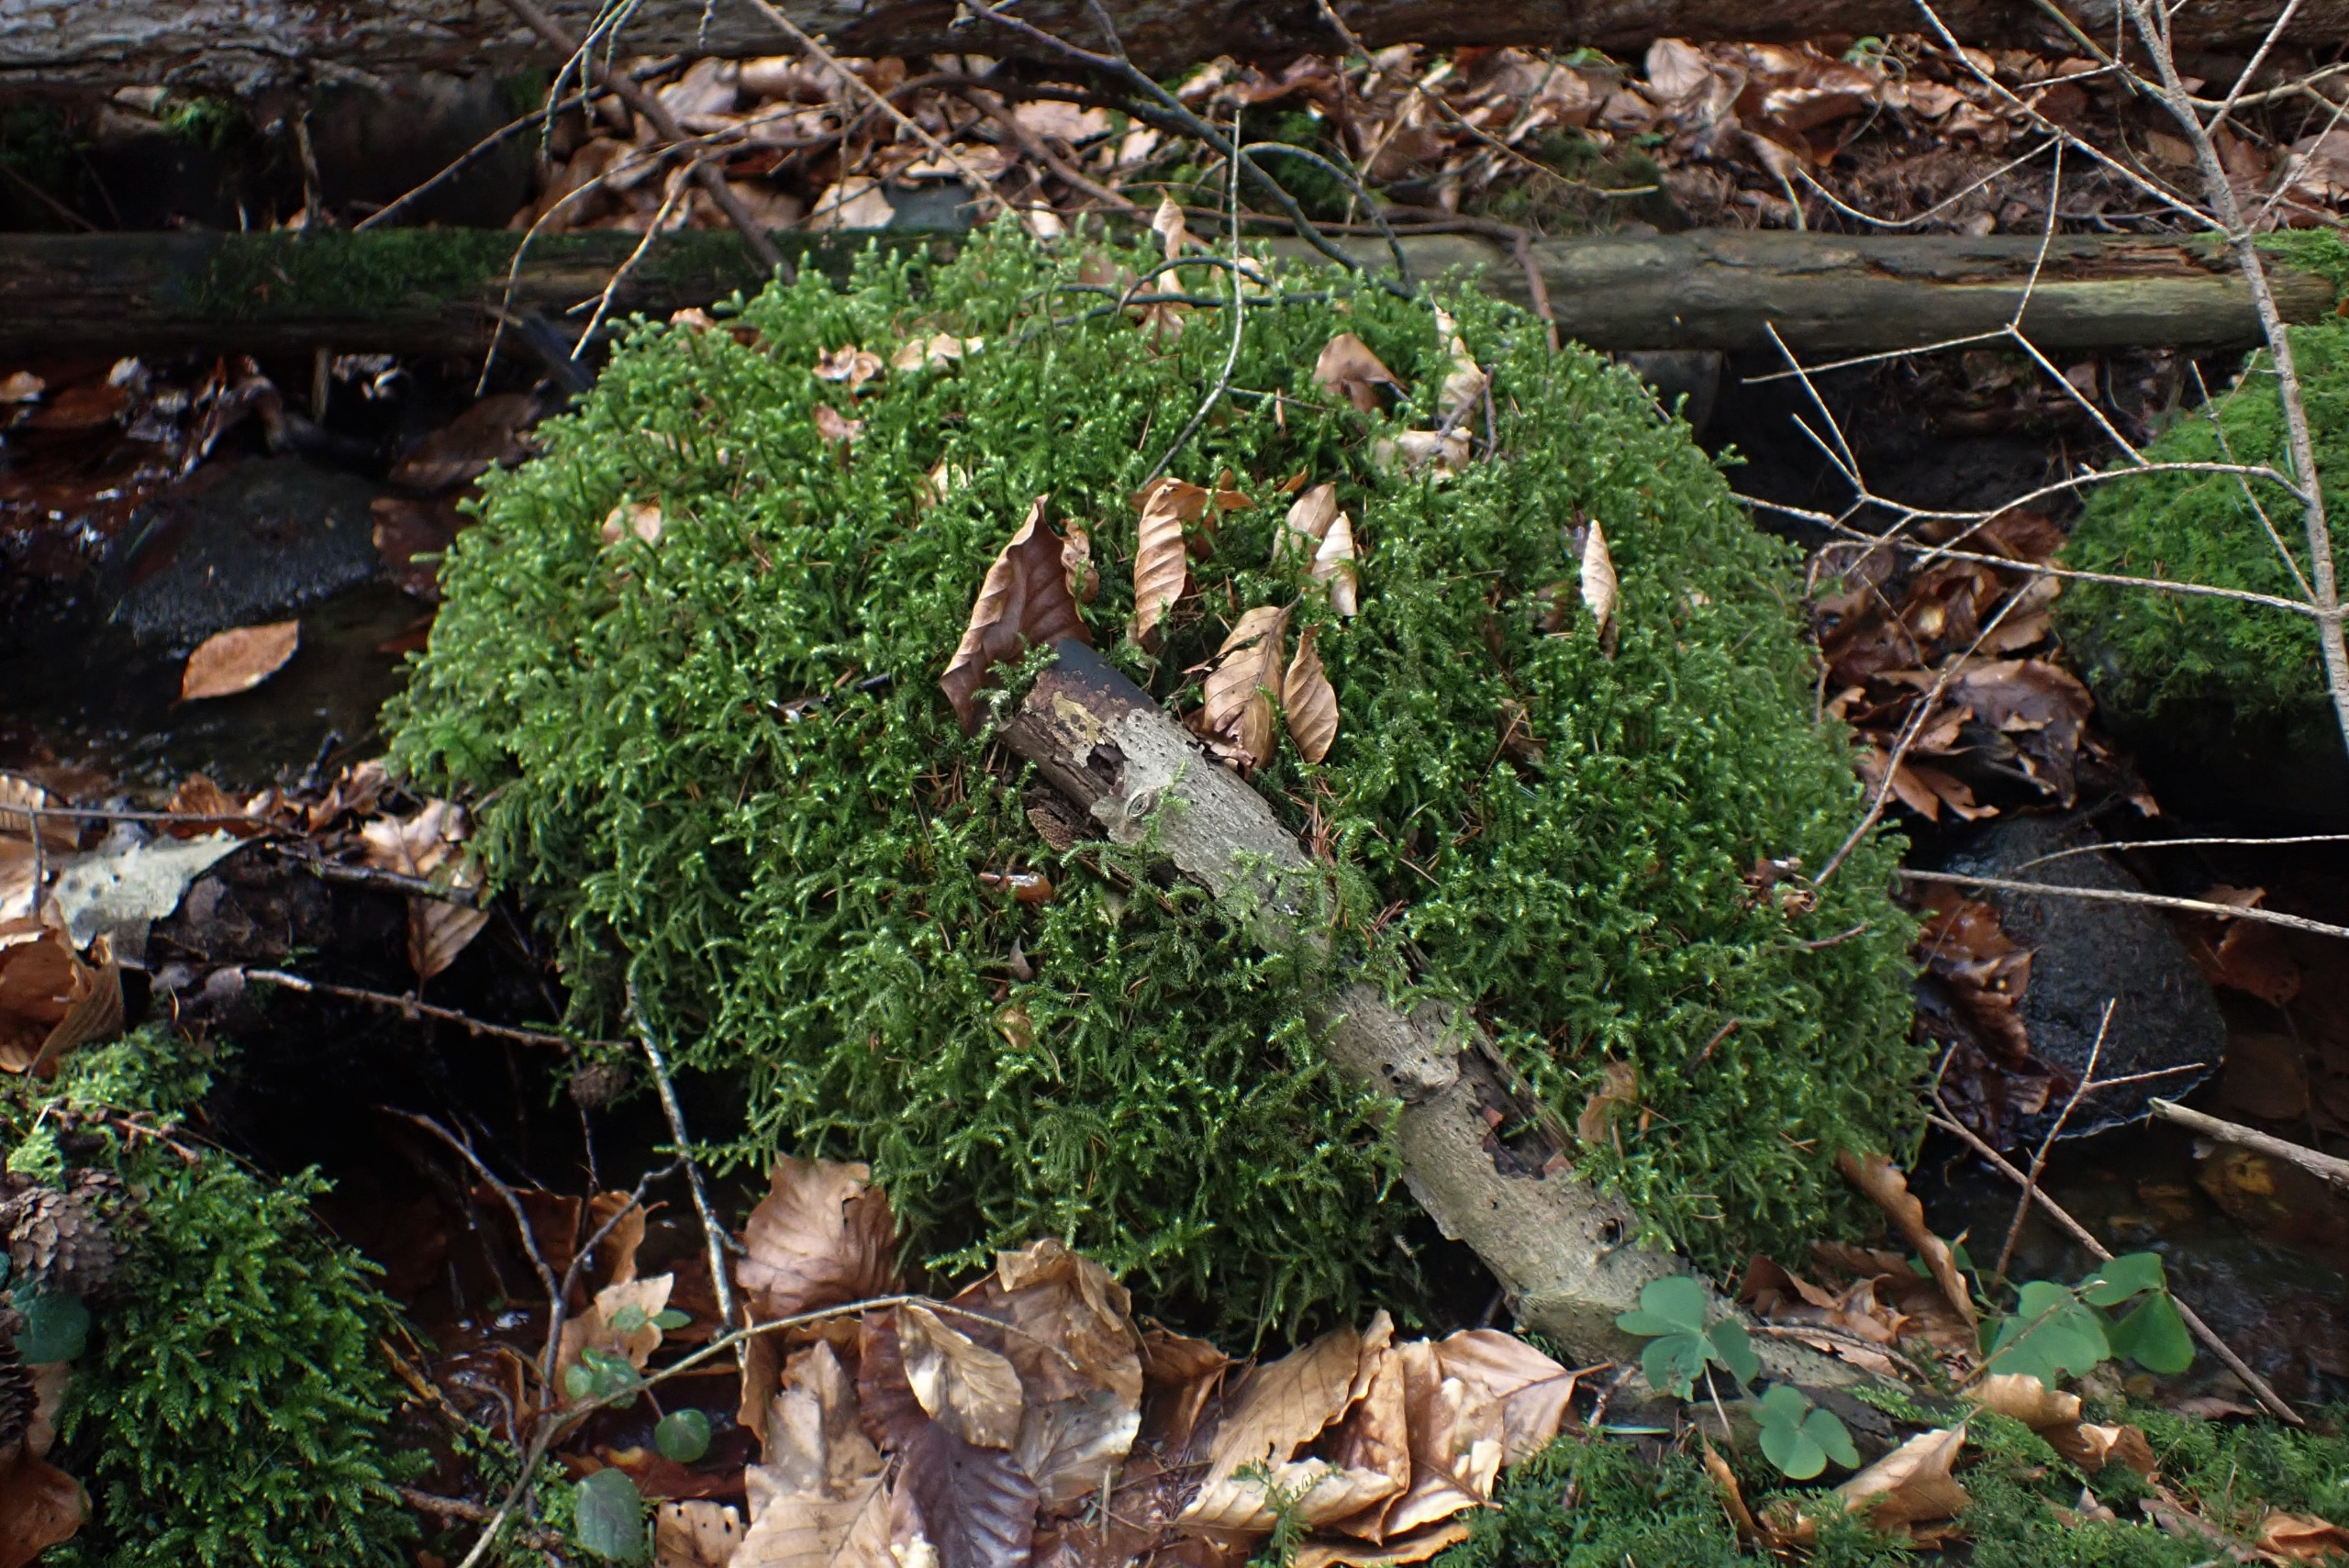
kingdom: Plantae
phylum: Bryophyta
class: Bryopsida
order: Hypnales
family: Hylocomiaceae
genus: Rhytidiadelphus
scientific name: Rhytidiadelphus loreus
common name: Ulvefod-kransemos
